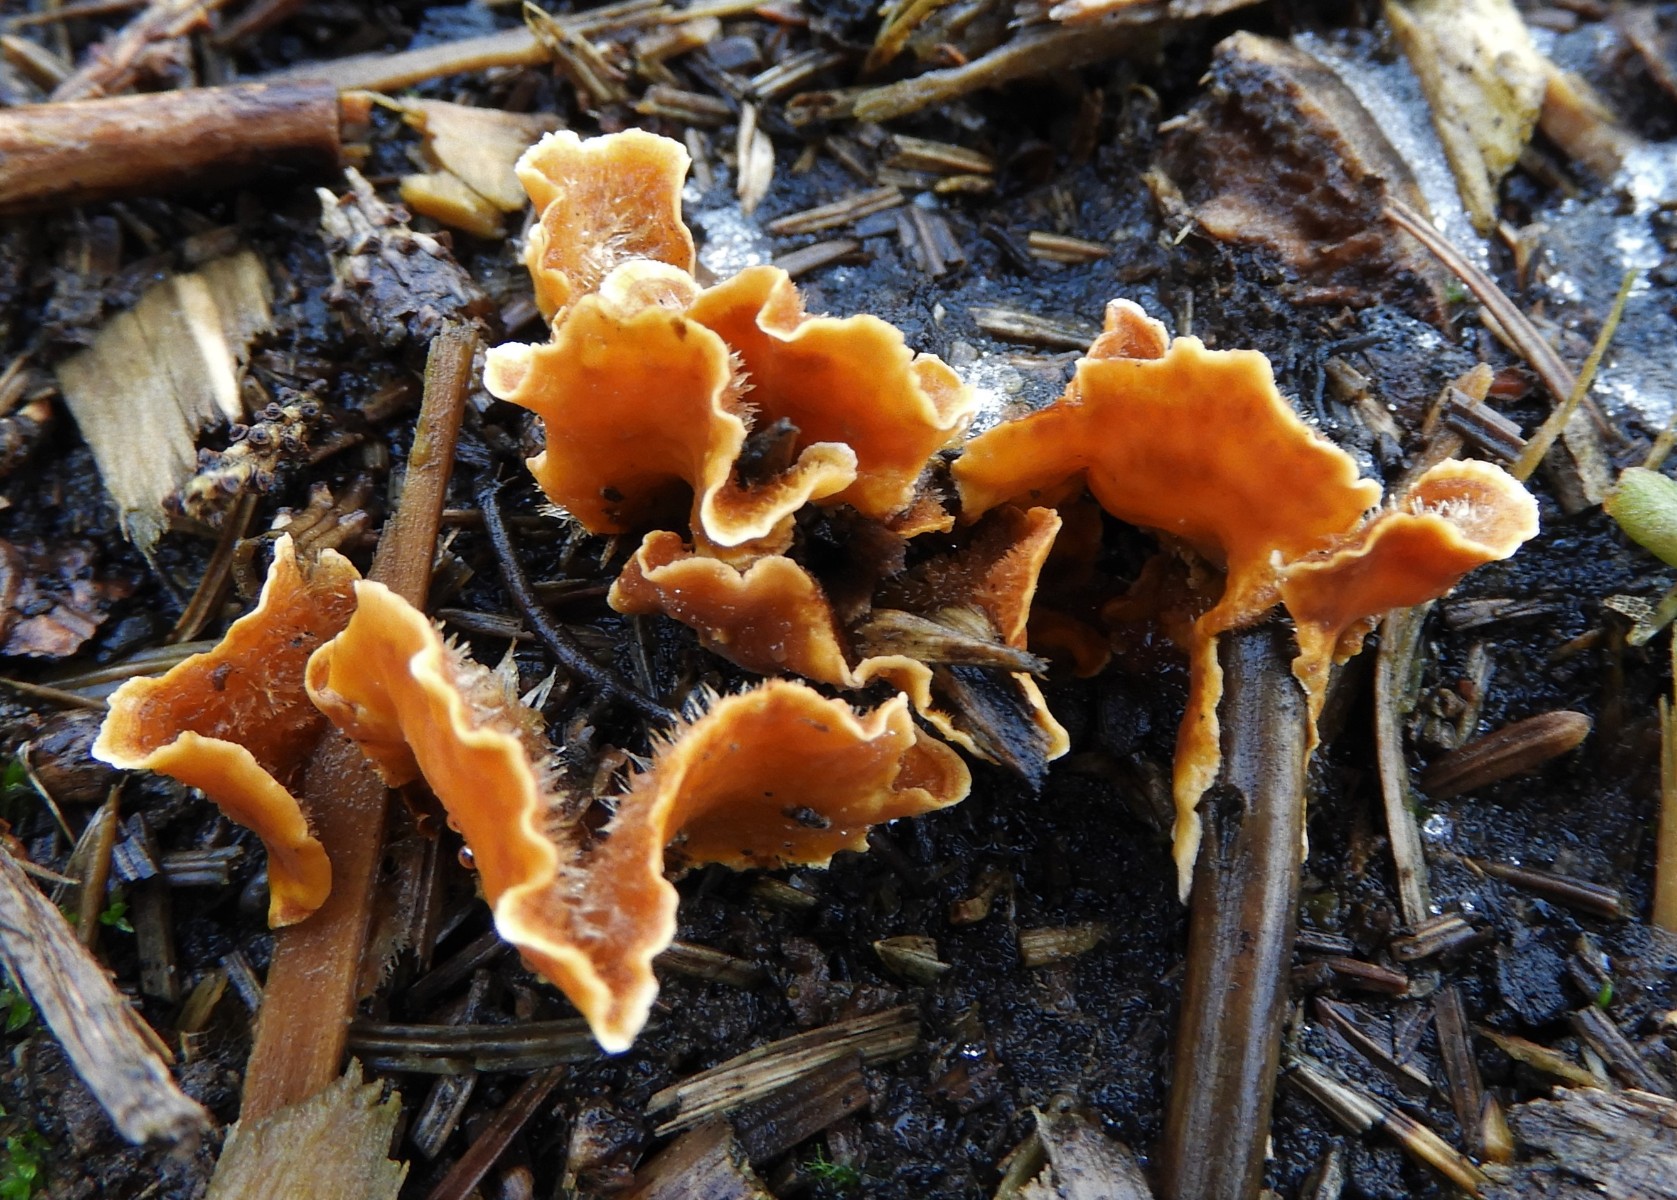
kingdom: Fungi
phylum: Basidiomycota
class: Agaricomycetes
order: Russulales
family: Stereaceae
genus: Stereum
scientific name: Stereum hirsutum
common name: håret lædersvamp
